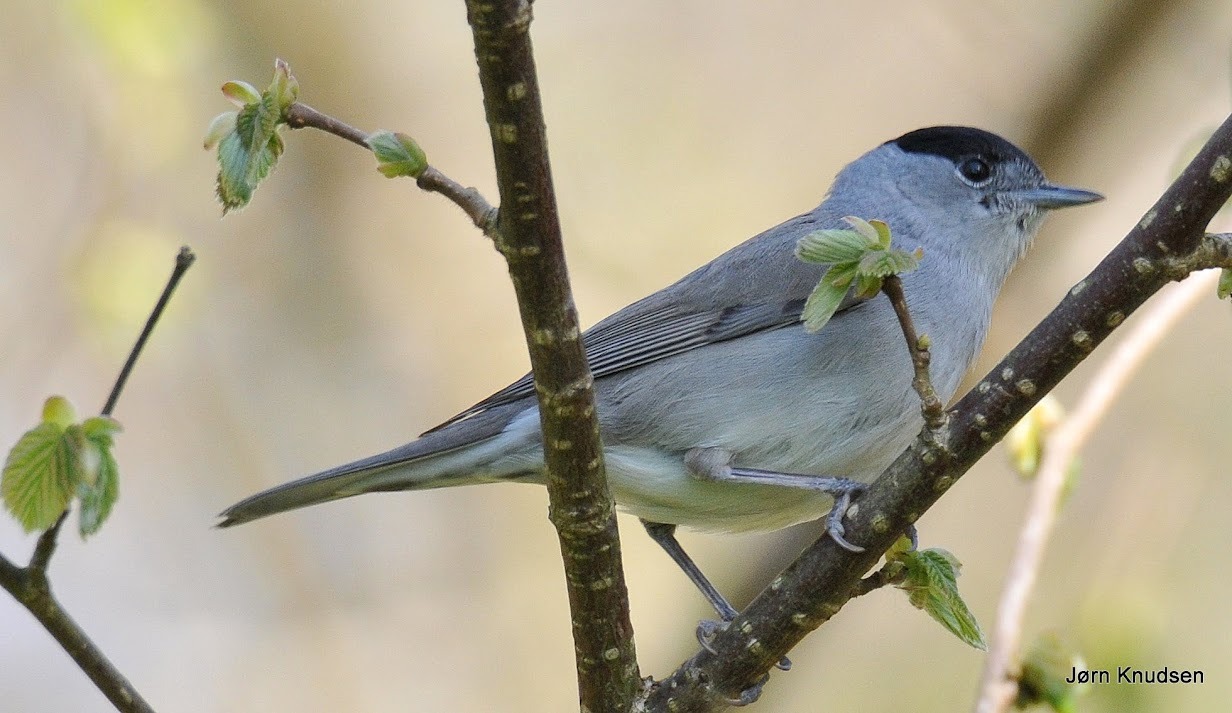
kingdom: Animalia
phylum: Chordata
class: Aves
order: Passeriformes
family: Sylviidae
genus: Sylvia
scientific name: Sylvia atricapilla
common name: Munk
